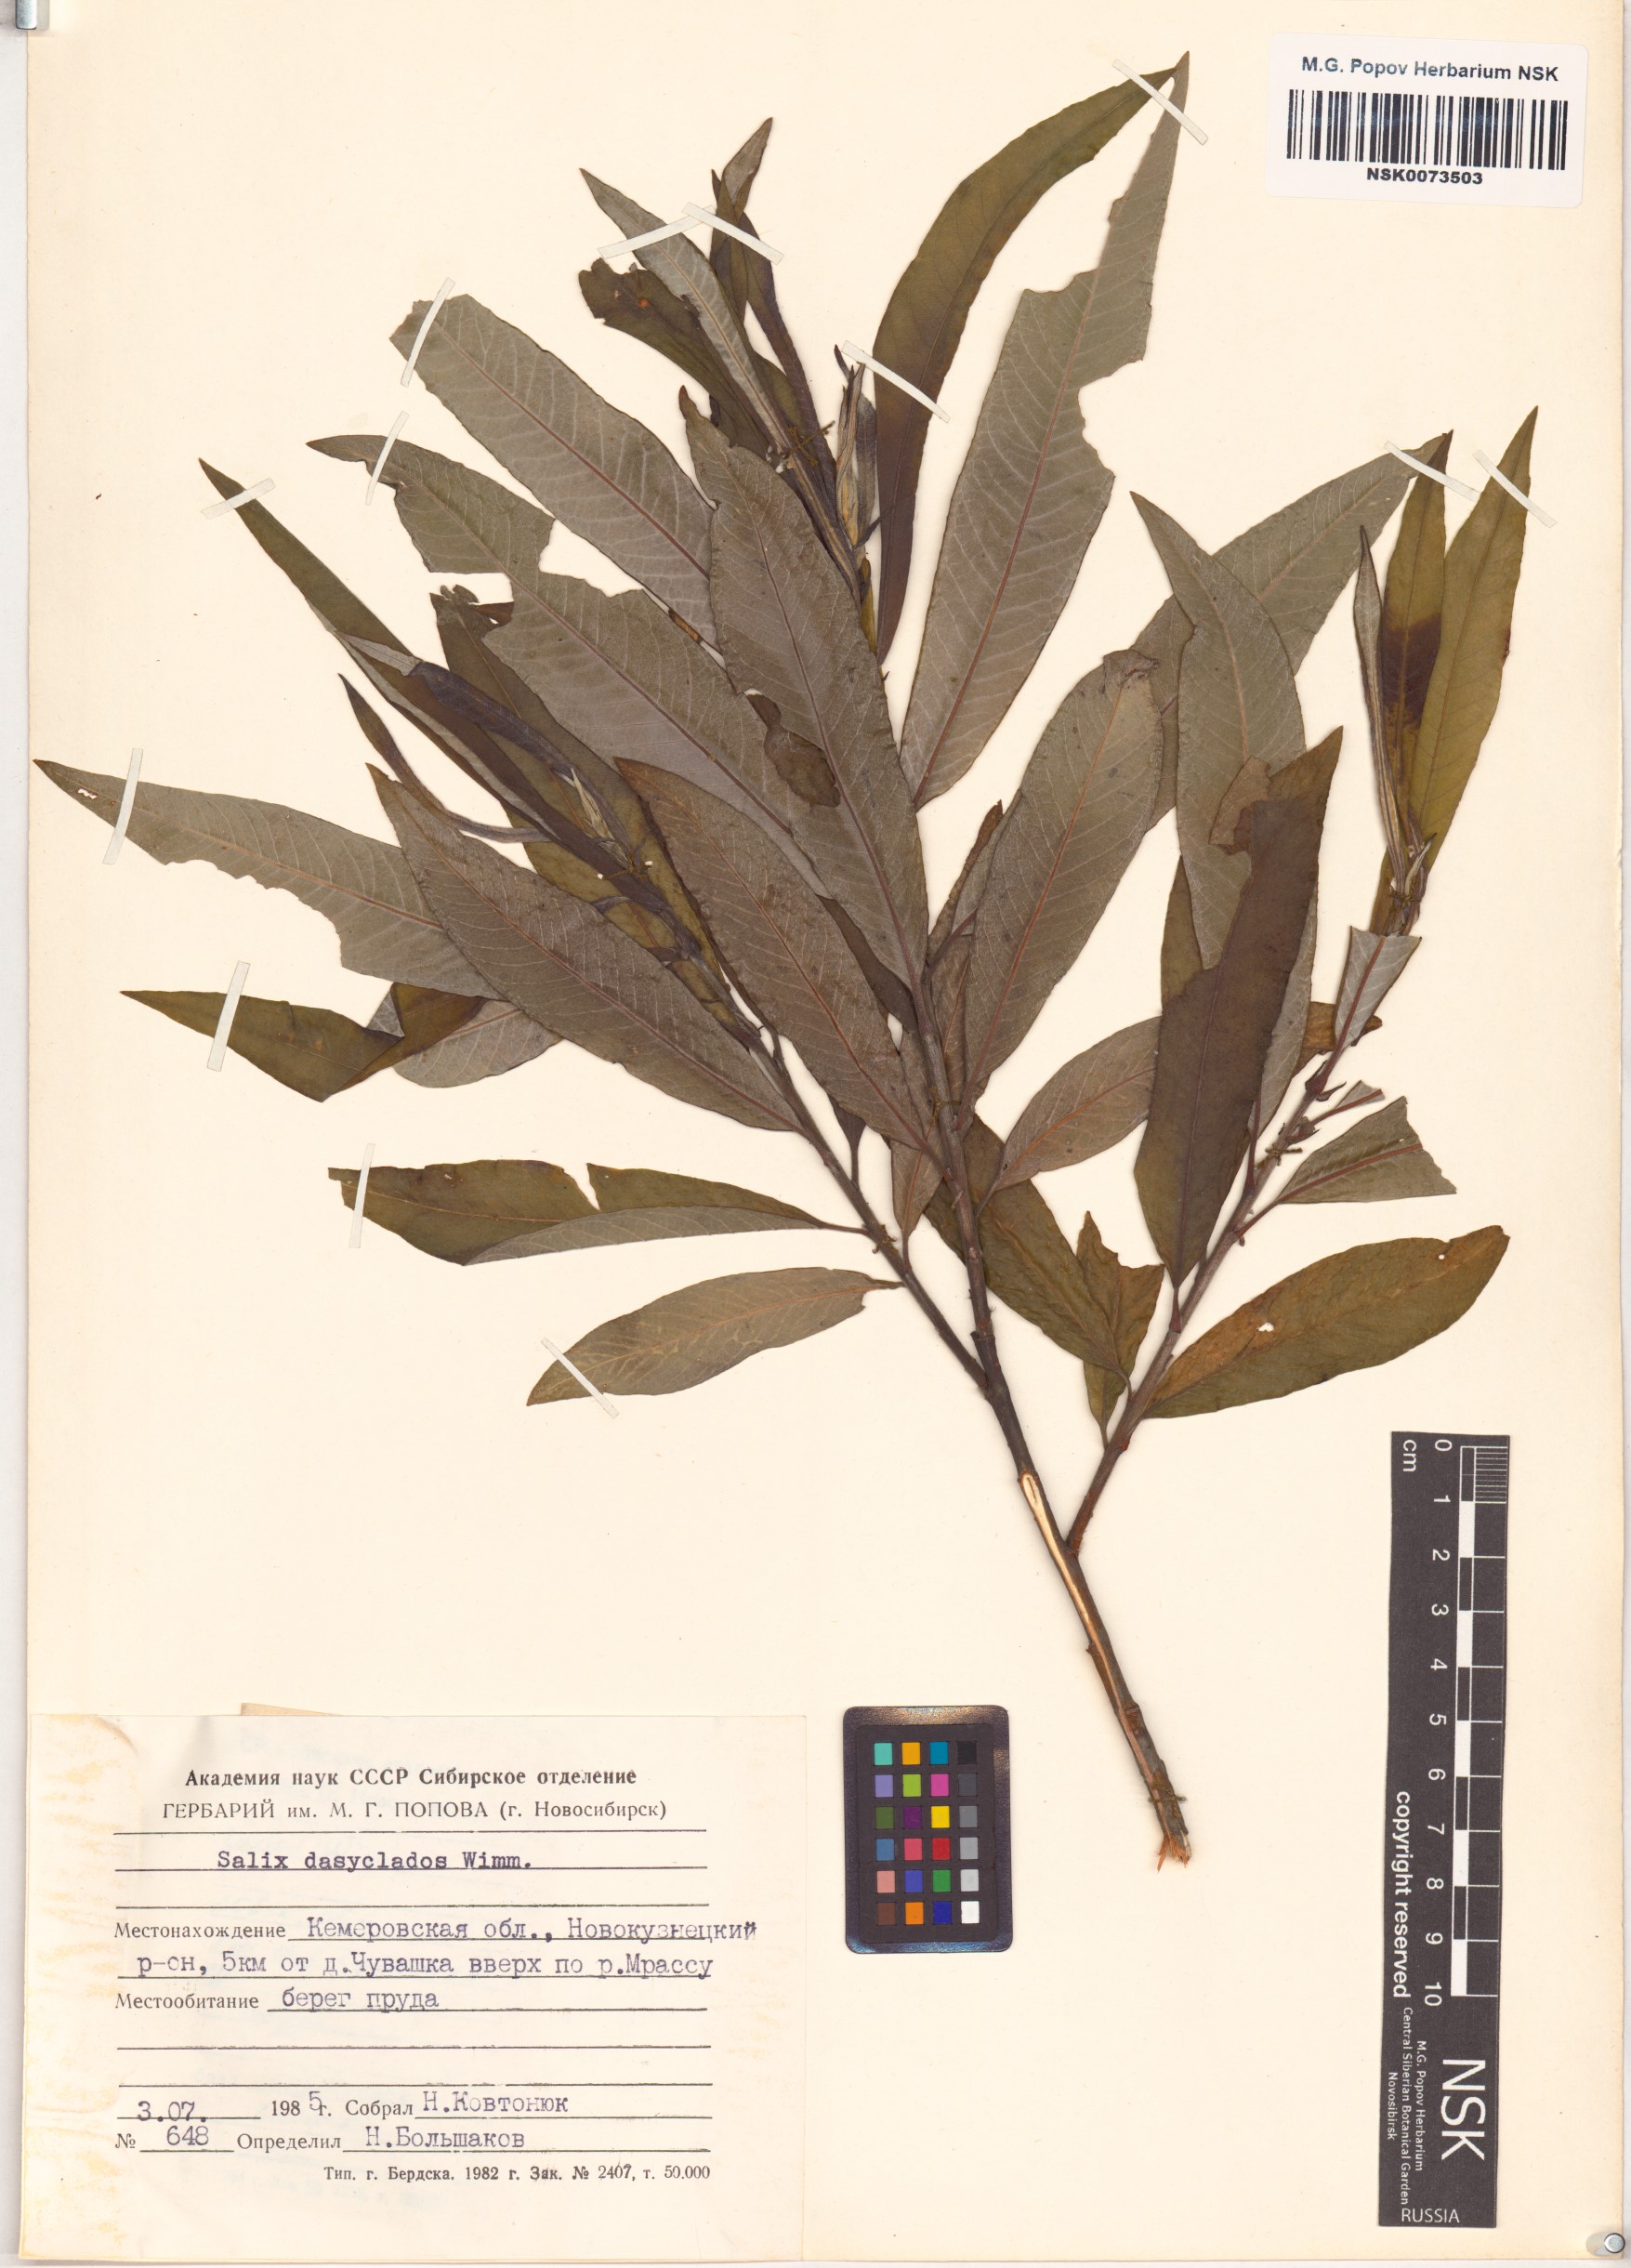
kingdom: Plantae
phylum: Tracheophyta
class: Magnoliopsida
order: Malpighiales
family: Salicaceae
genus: Salix
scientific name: Salix gmelinii
